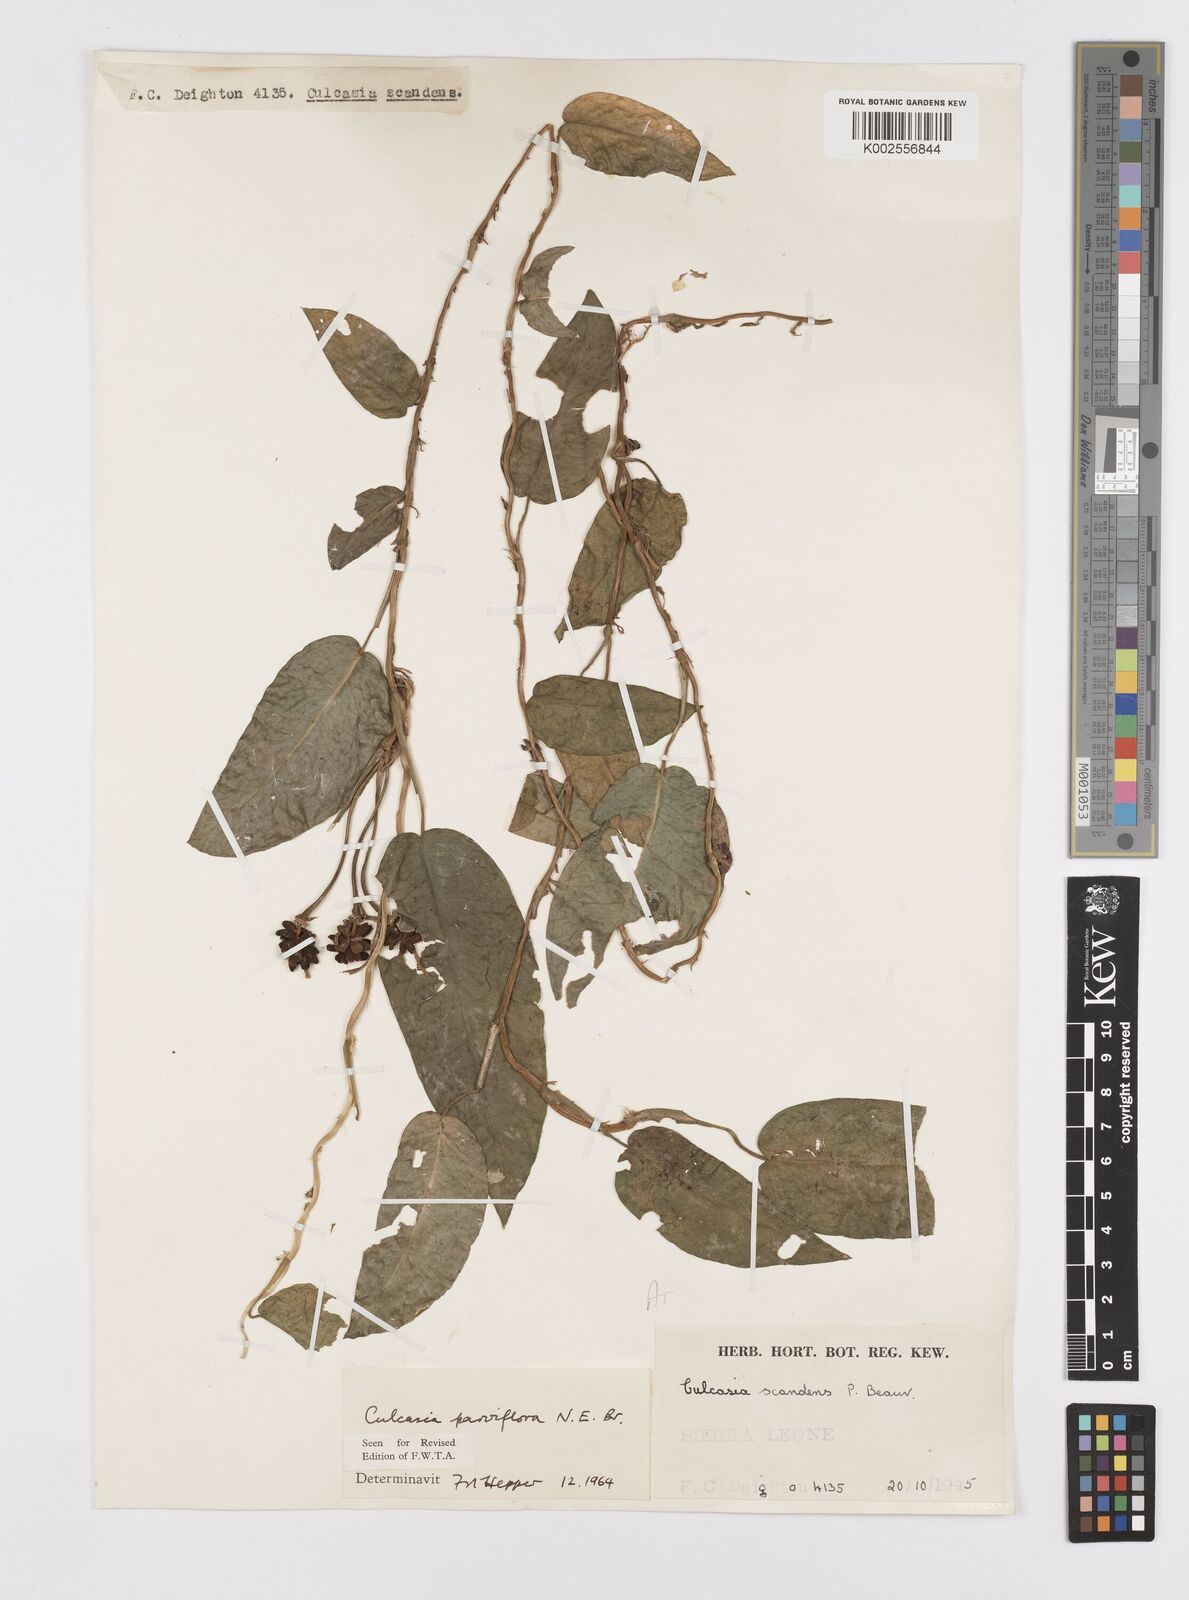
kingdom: Plantae
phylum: Tracheophyta
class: Liliopsida
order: Alismatales
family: Araceae
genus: Culcasia
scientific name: Culcasia parviflora
